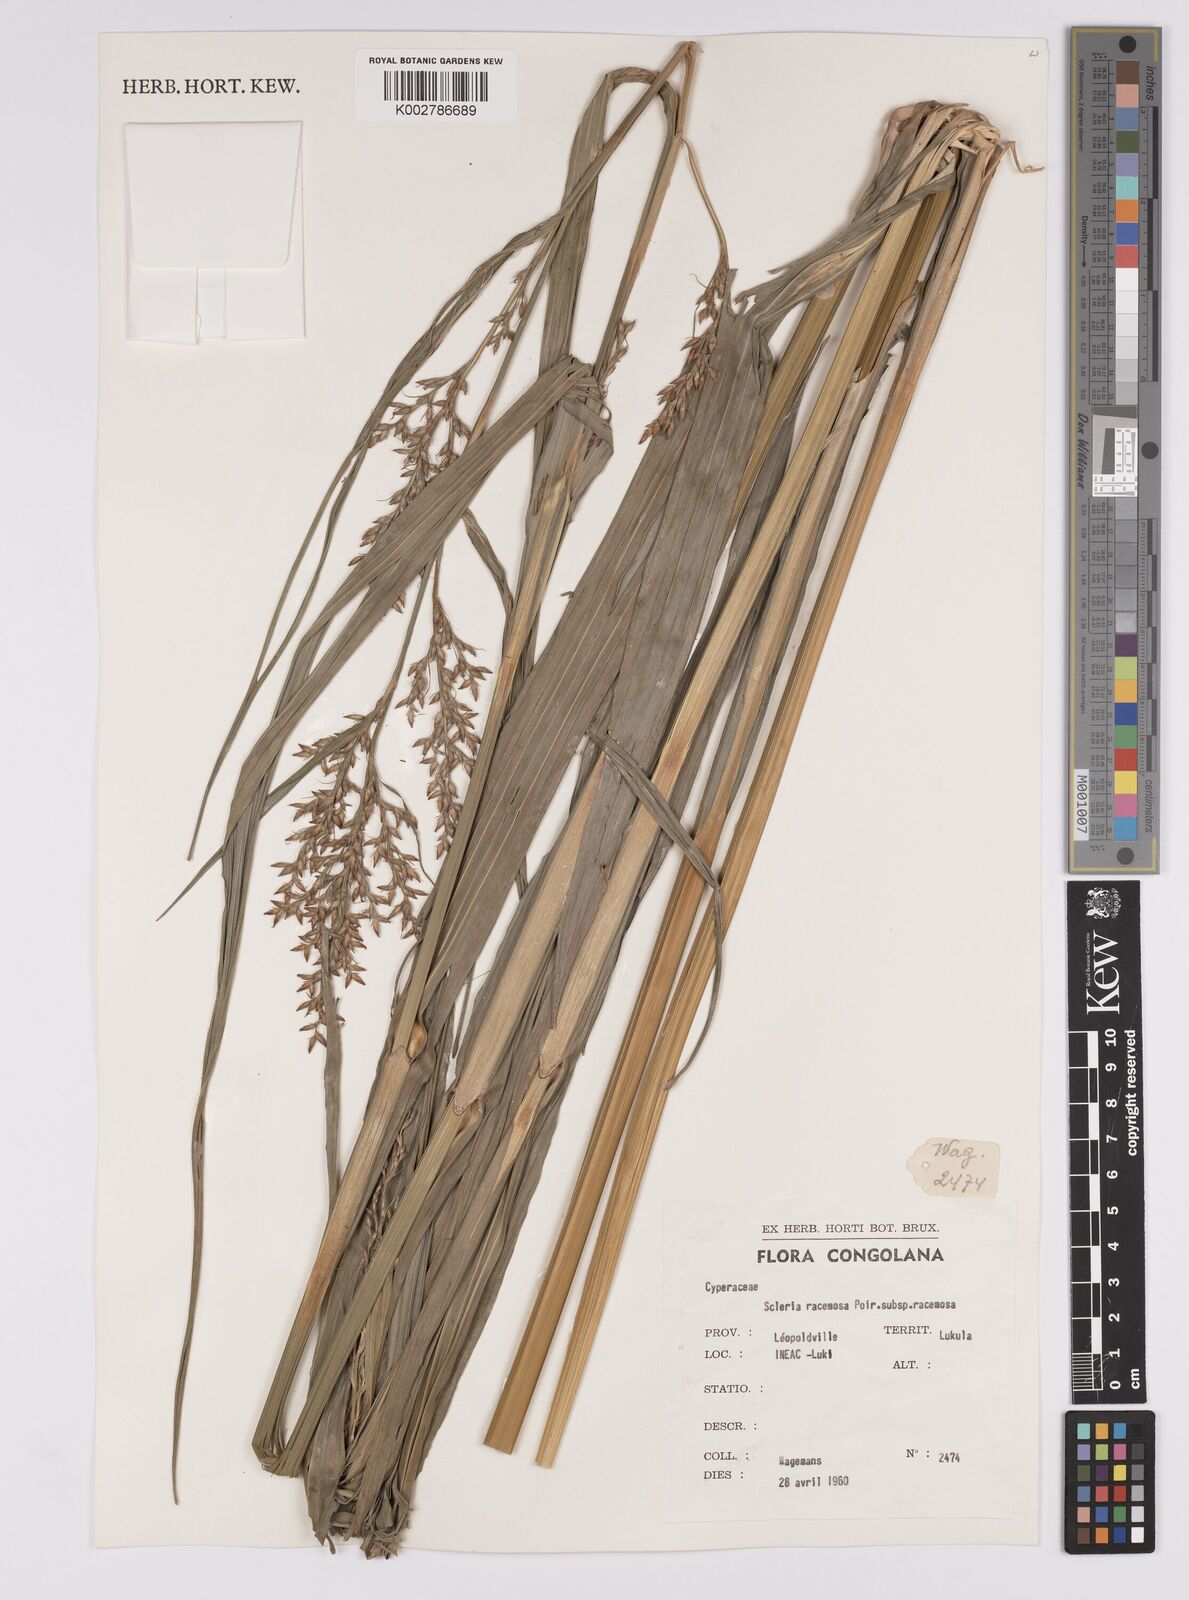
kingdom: Plantae
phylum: Tracheophyta
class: Liliopsida
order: Poales
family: Cyperaceae
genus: Scleria
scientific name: Scleria racemosa
